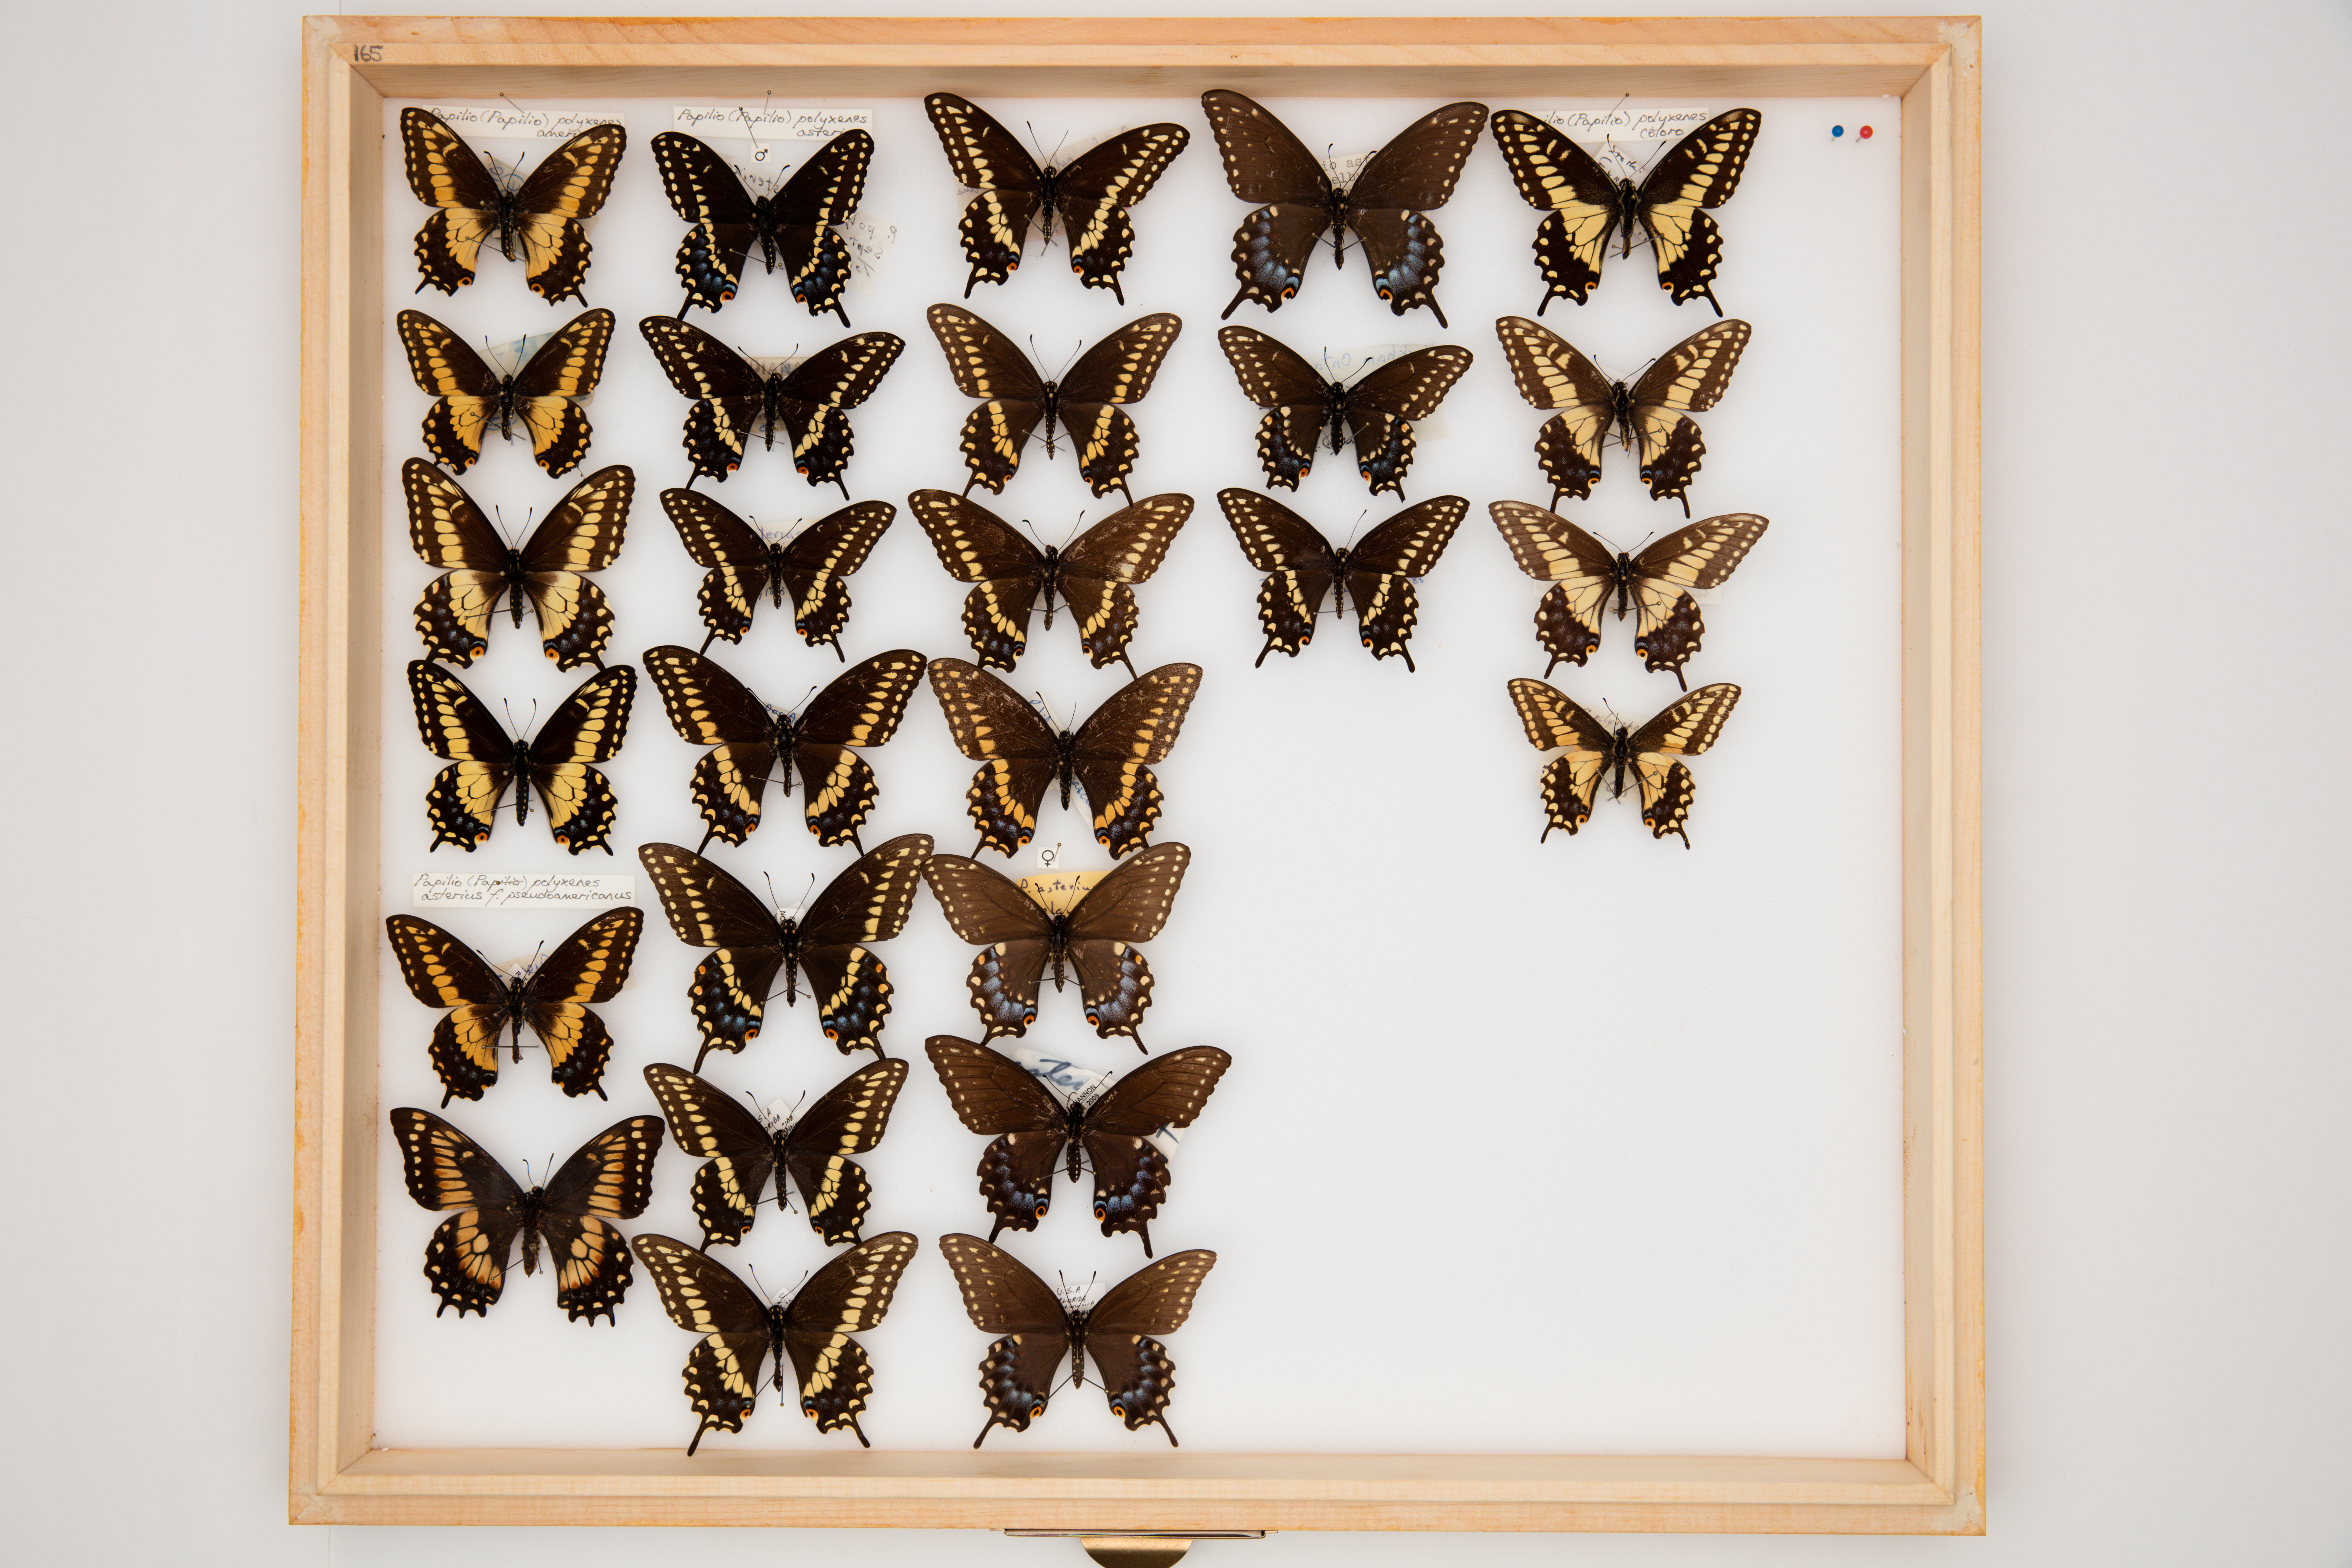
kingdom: Animalia
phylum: Arthropoda
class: Insecta
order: Lepidoptera
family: Papilionidae
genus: Papilio
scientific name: Papilio polyxenes
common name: Black swallowtail
